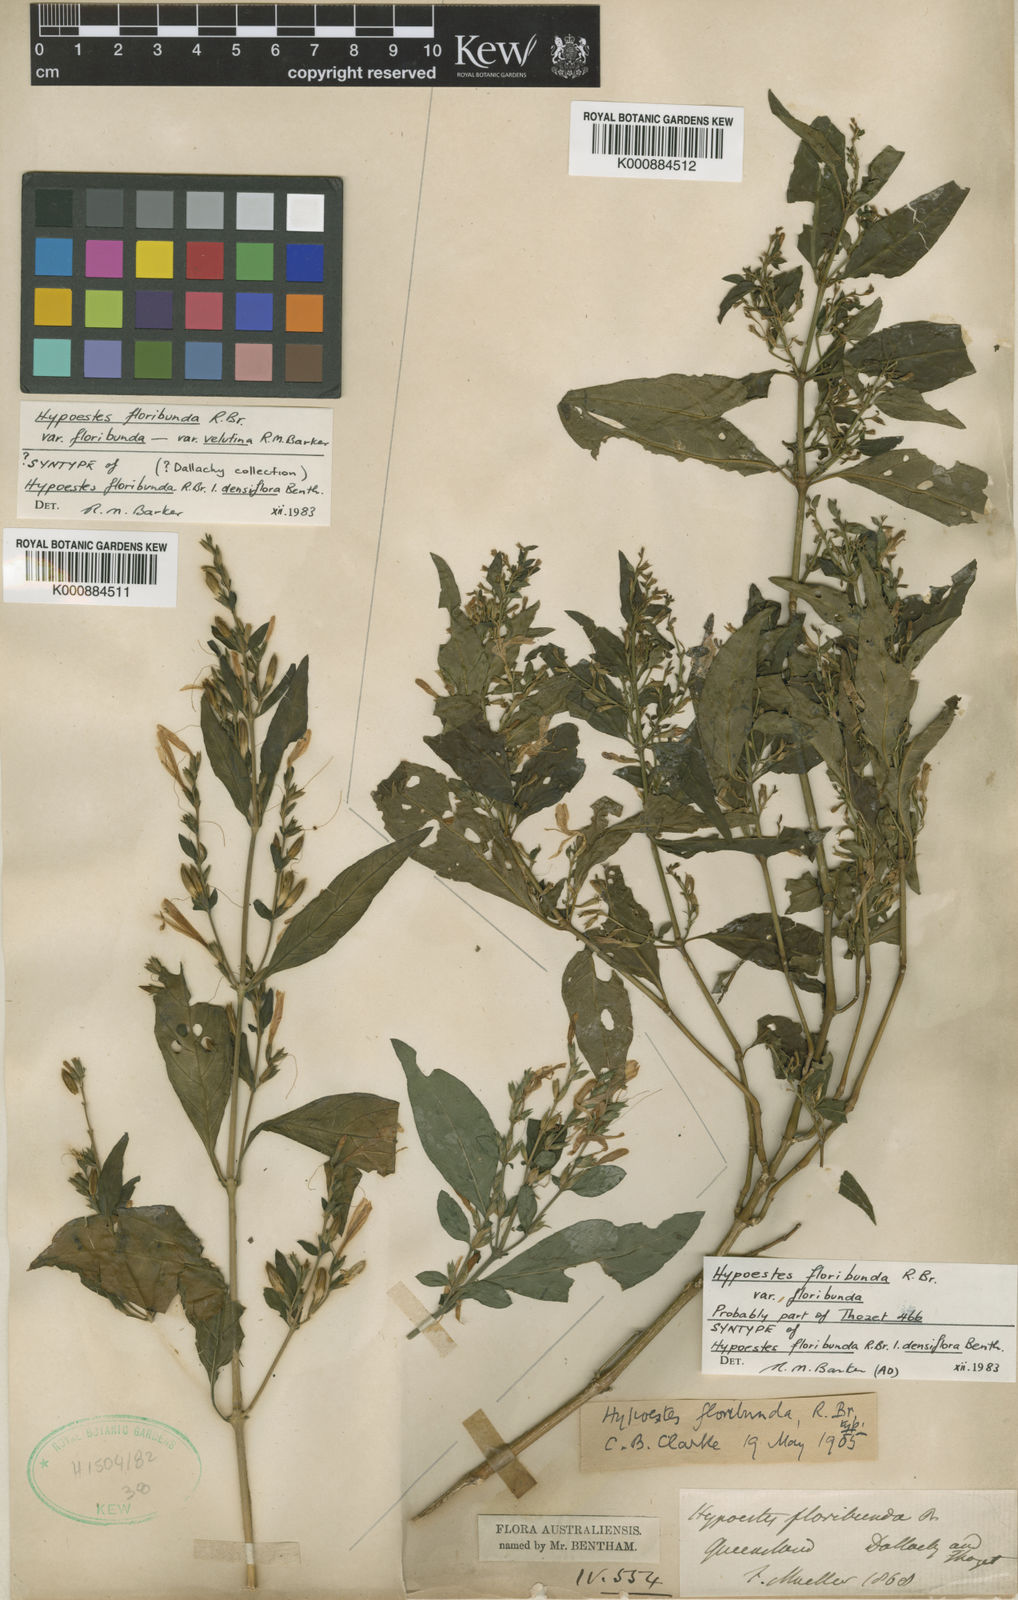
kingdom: Plantae
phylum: Tracheophyta
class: Magnoliopsida
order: Lamiales
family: Acanthaceae
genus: Hypoestes
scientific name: Hypoestes floribunda
